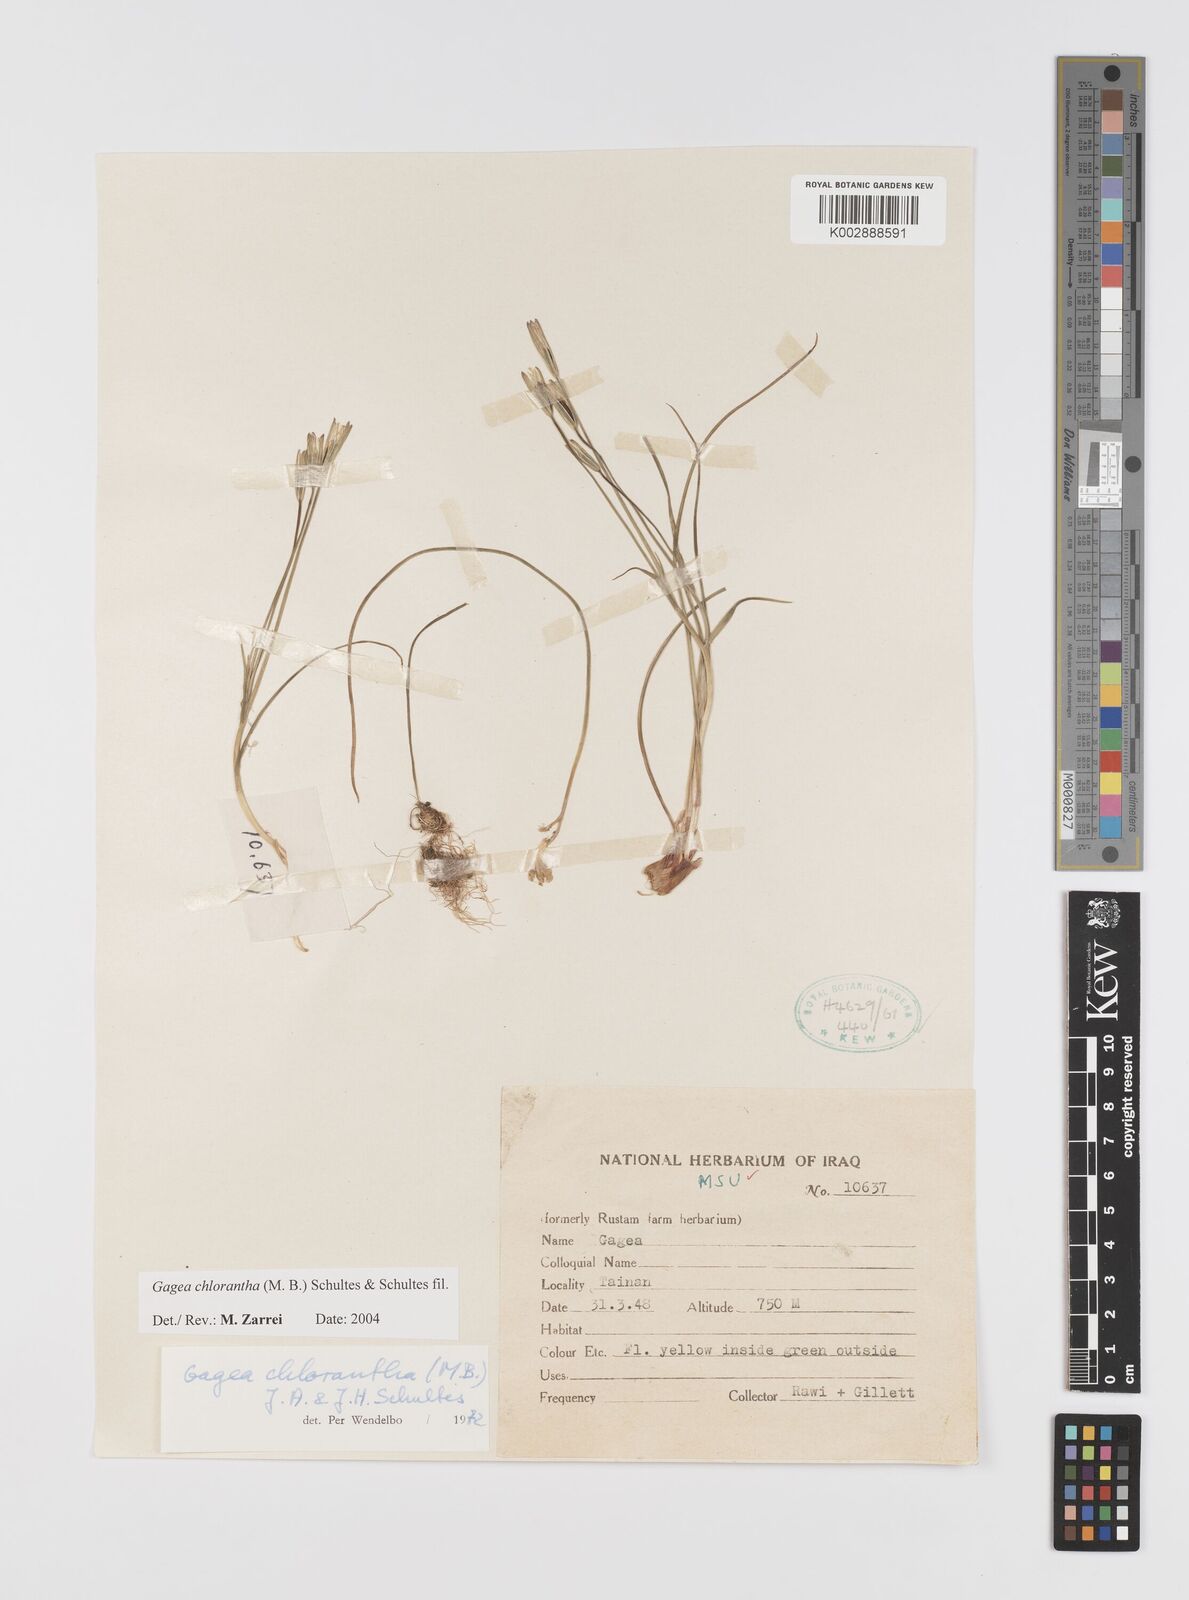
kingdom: Plantae
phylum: Tracheophyta
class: Liliopsida
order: Liliales
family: Liliaceae
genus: Gagea
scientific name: Gagea chlorantha
